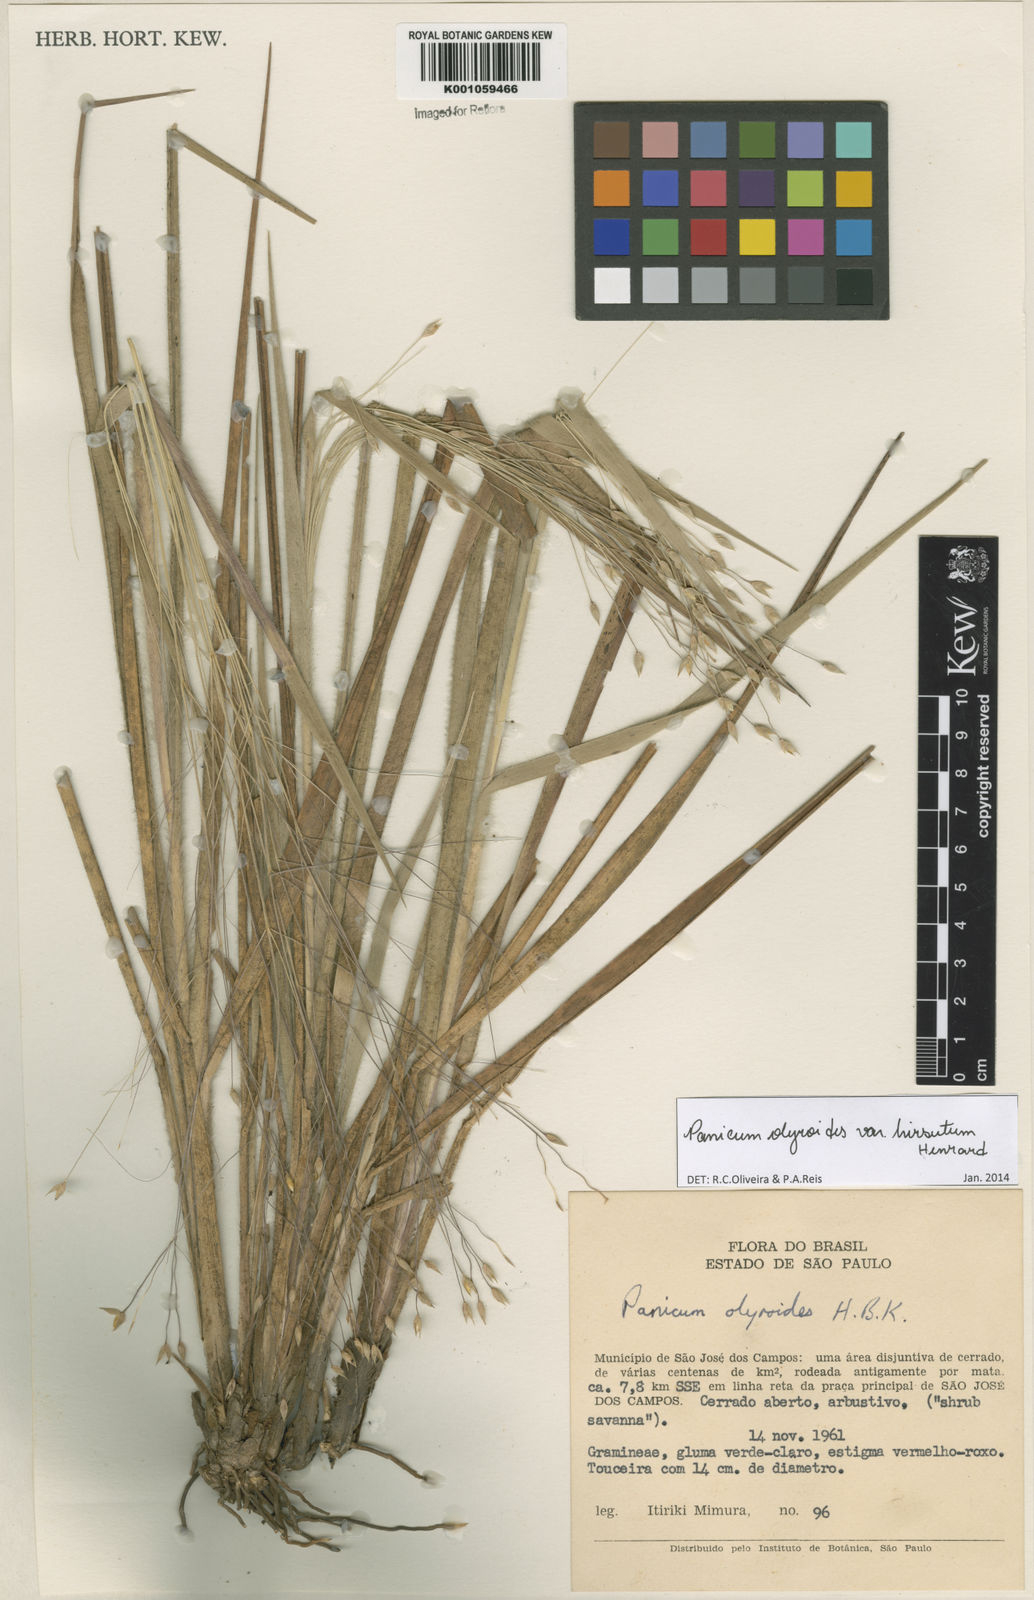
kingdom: Plantae
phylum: Tracheophyta
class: Liliopsida
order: Poales
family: Poaceae
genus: Panicum
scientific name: Panicum olyroides
